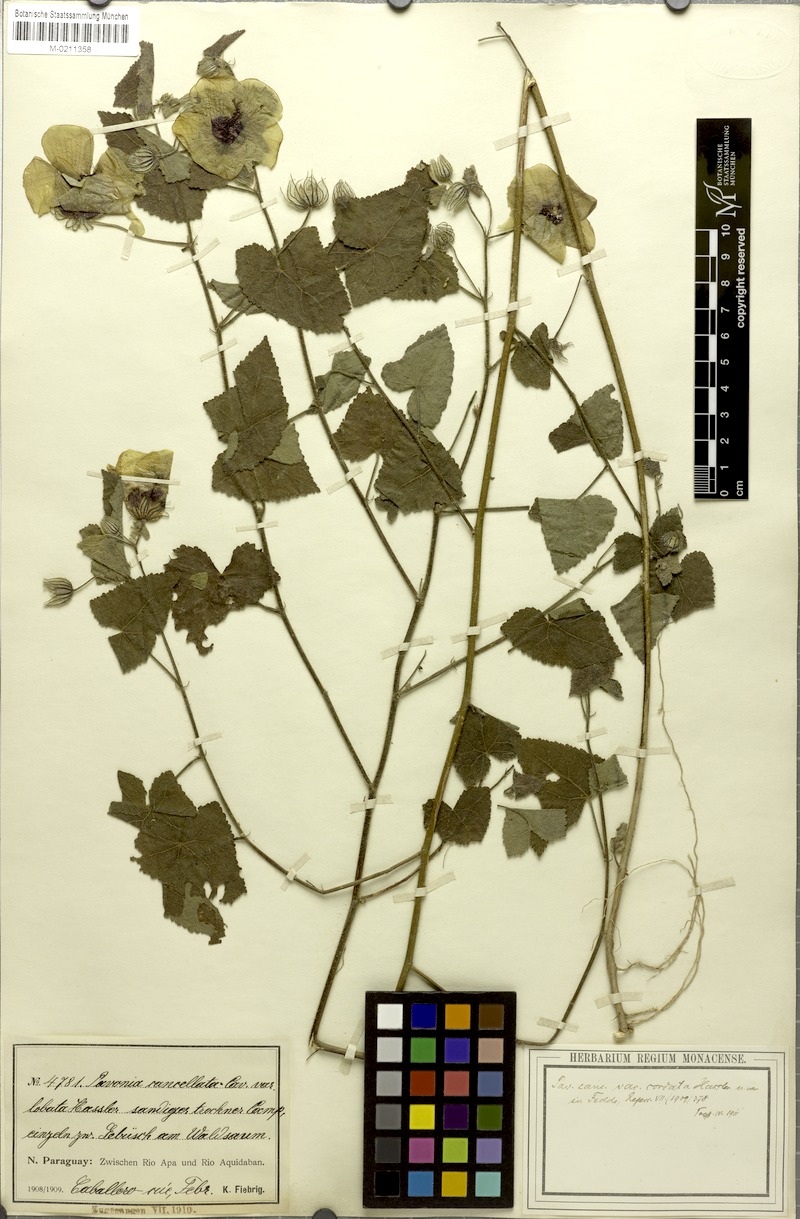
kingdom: Plantae
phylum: Tracheophyta
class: Magnoliopsida
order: Malvales
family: Malvaceae
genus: Pavonia
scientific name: Pavonia cancellata
